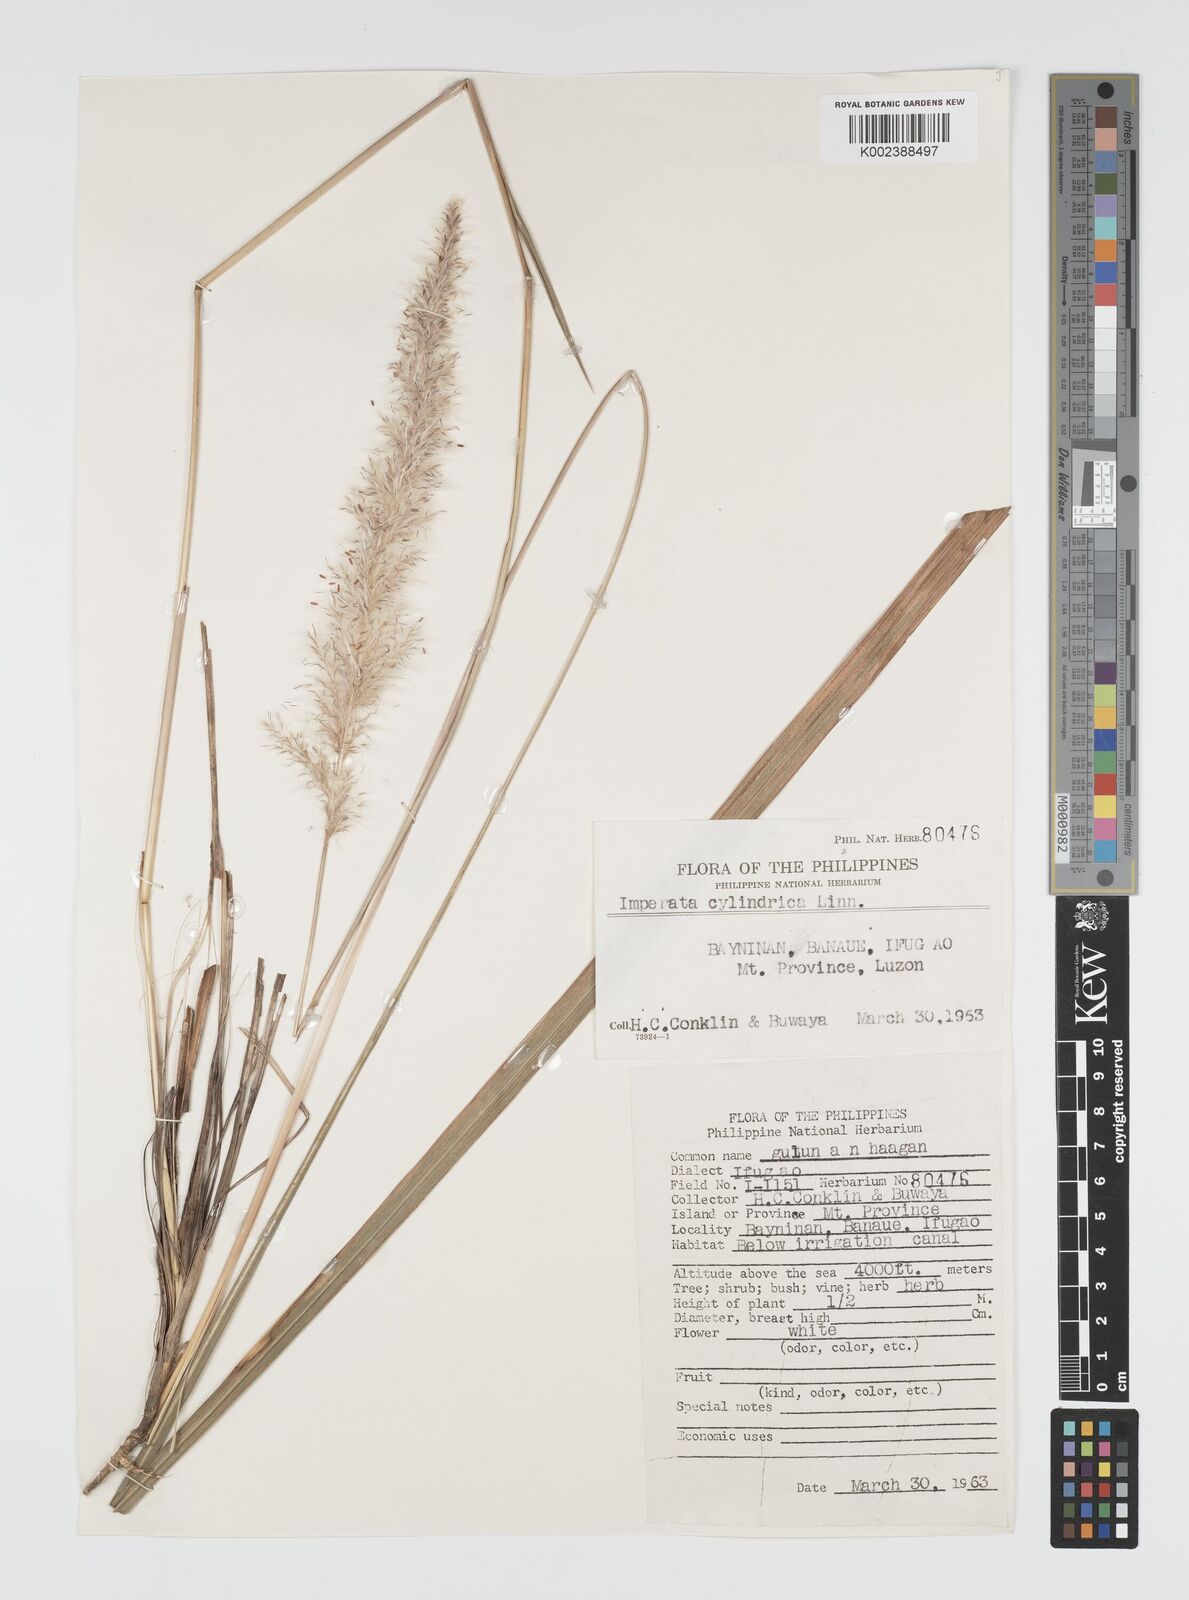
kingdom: Plantae
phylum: Tracheophyta
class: Liliopsida
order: Poales
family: Poaceae
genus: Imperata
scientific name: Imperata cylindrica
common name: Cogongrass
